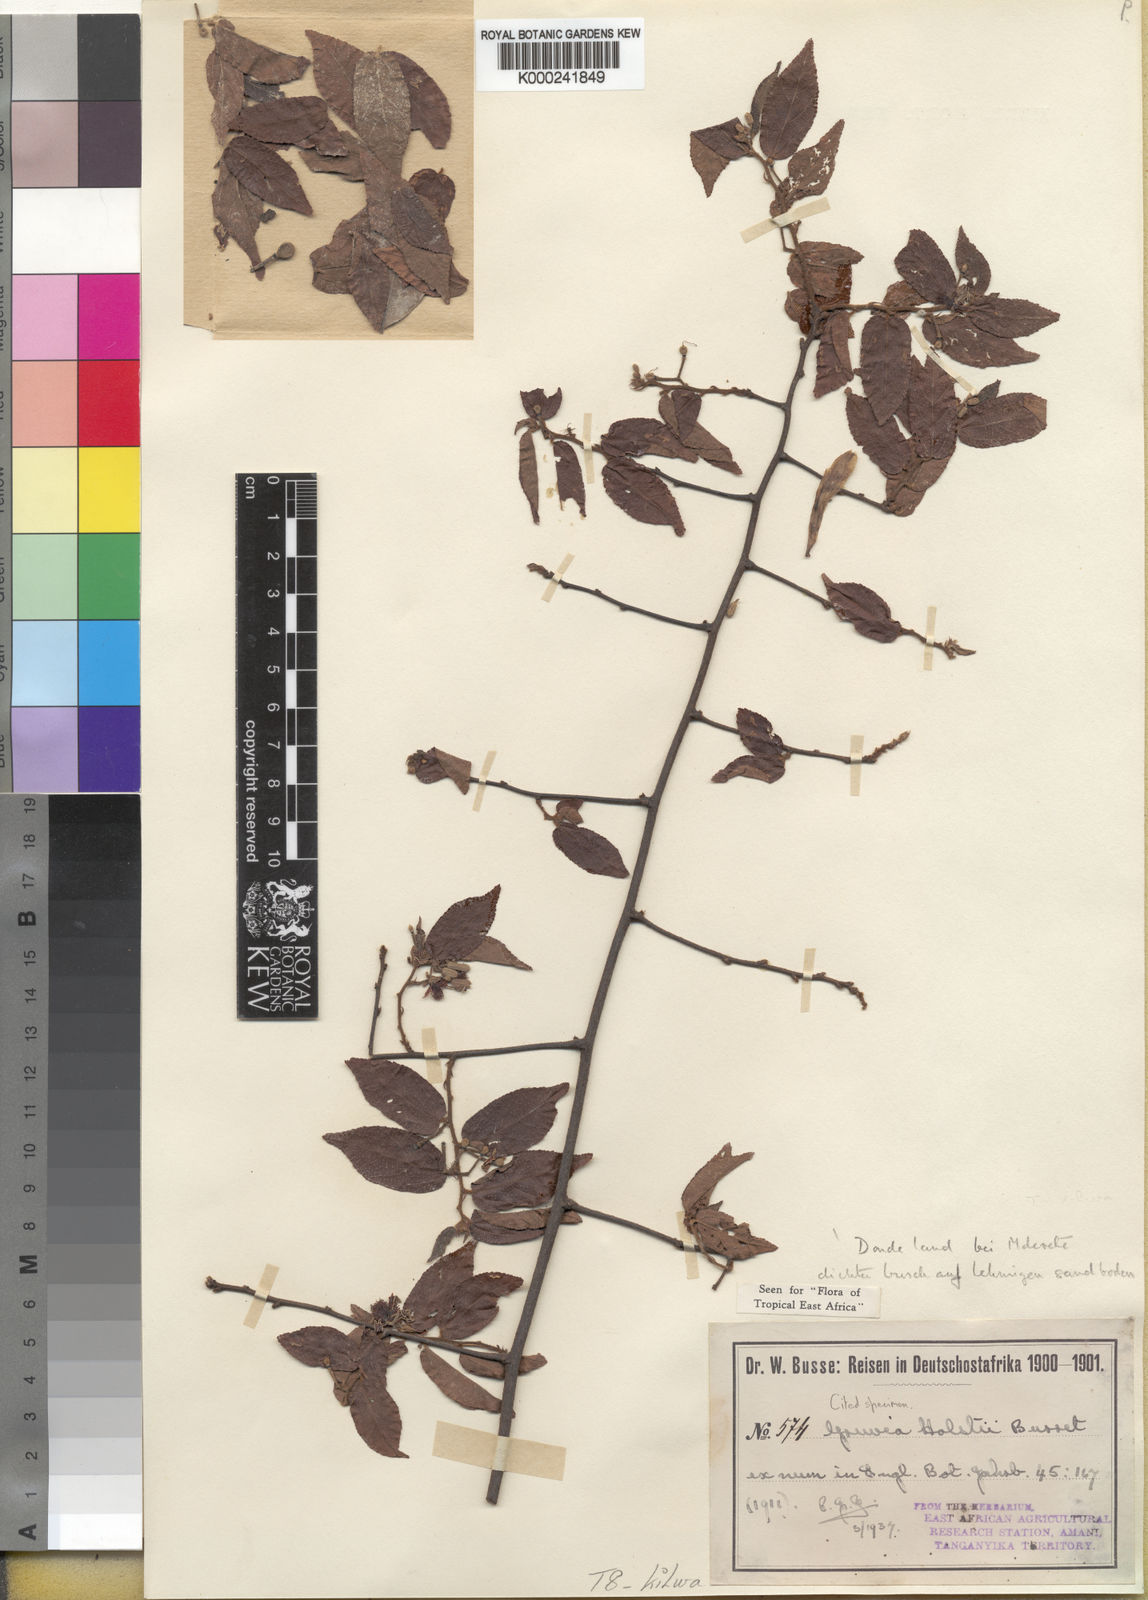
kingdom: Plantae
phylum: Tracheophyta
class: Magnoliopsida
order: Malvales
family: Malvaceae
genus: Grewia
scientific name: Grewia holstii
